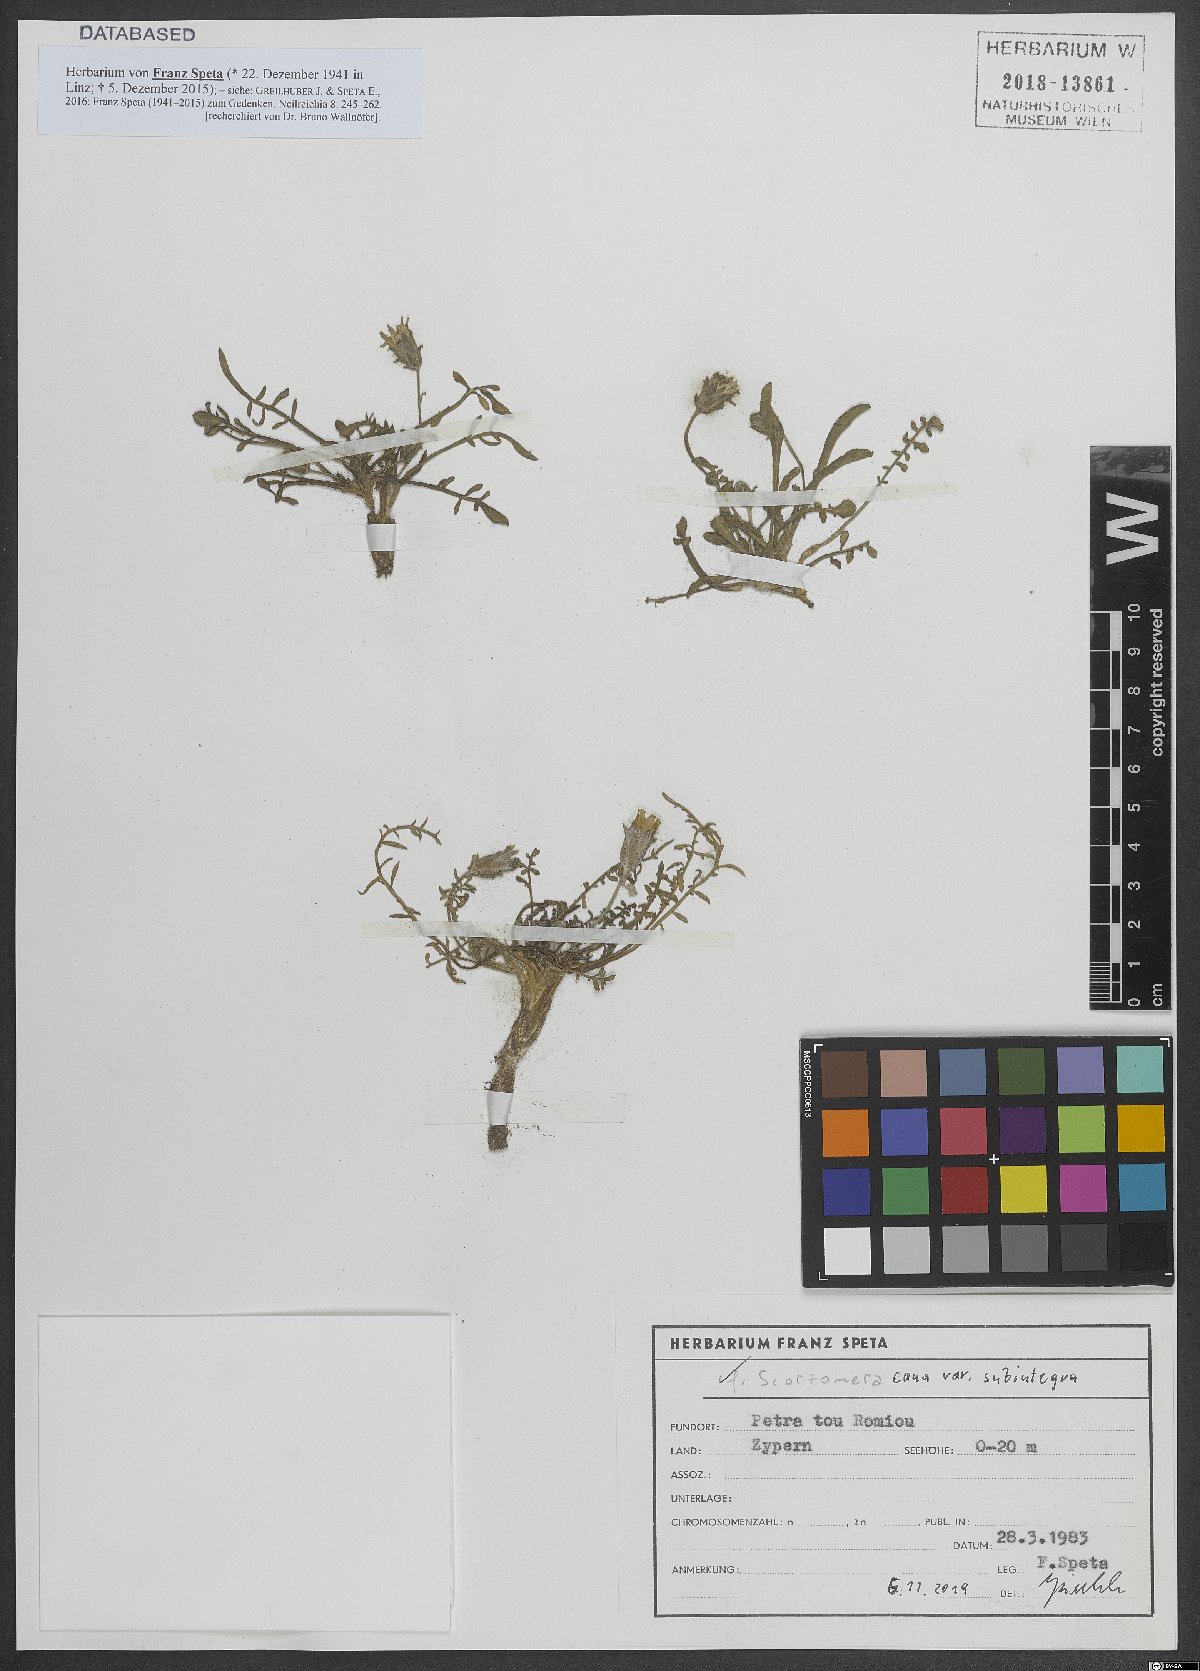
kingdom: Plantae
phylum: Tracheophyta
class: Magnoliopsida
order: Asterales
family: Asteraceae
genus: Scorzonera
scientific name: Scorzonera alpigena
